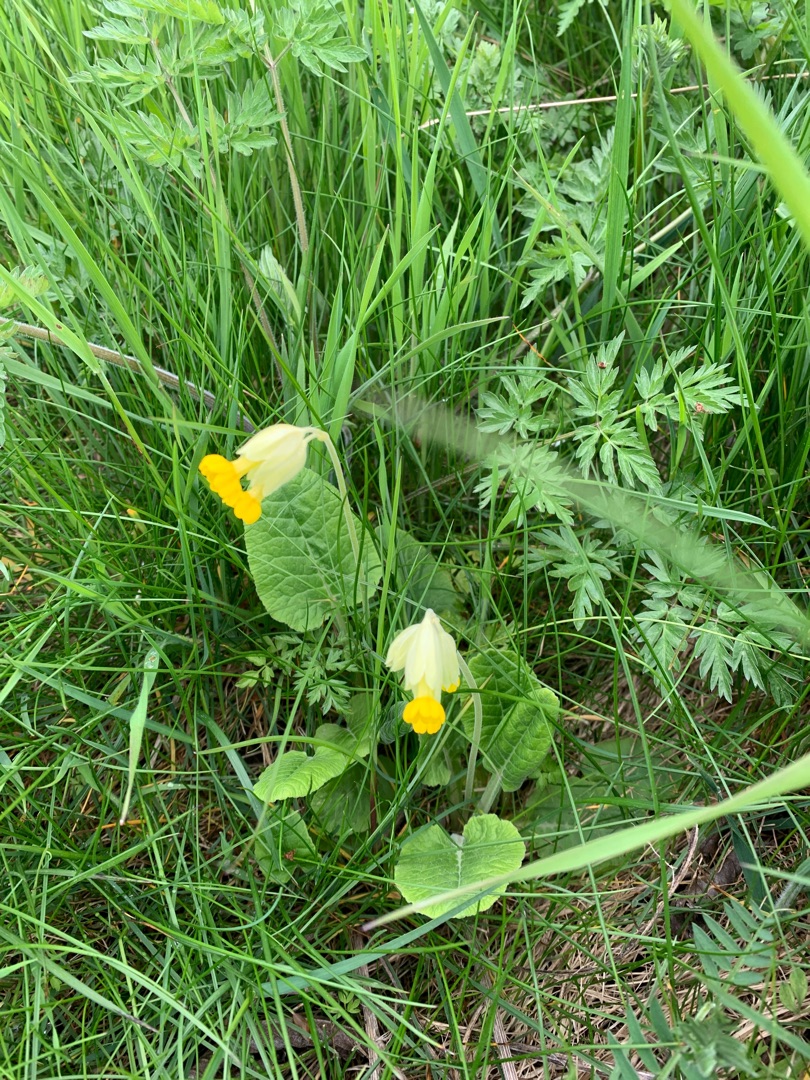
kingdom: Plantae
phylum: Tracheophyta
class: Magnoliopsida
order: Ericales
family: Primulaceae
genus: Primula
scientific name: Primula veris
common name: Hulkravet kodriver
